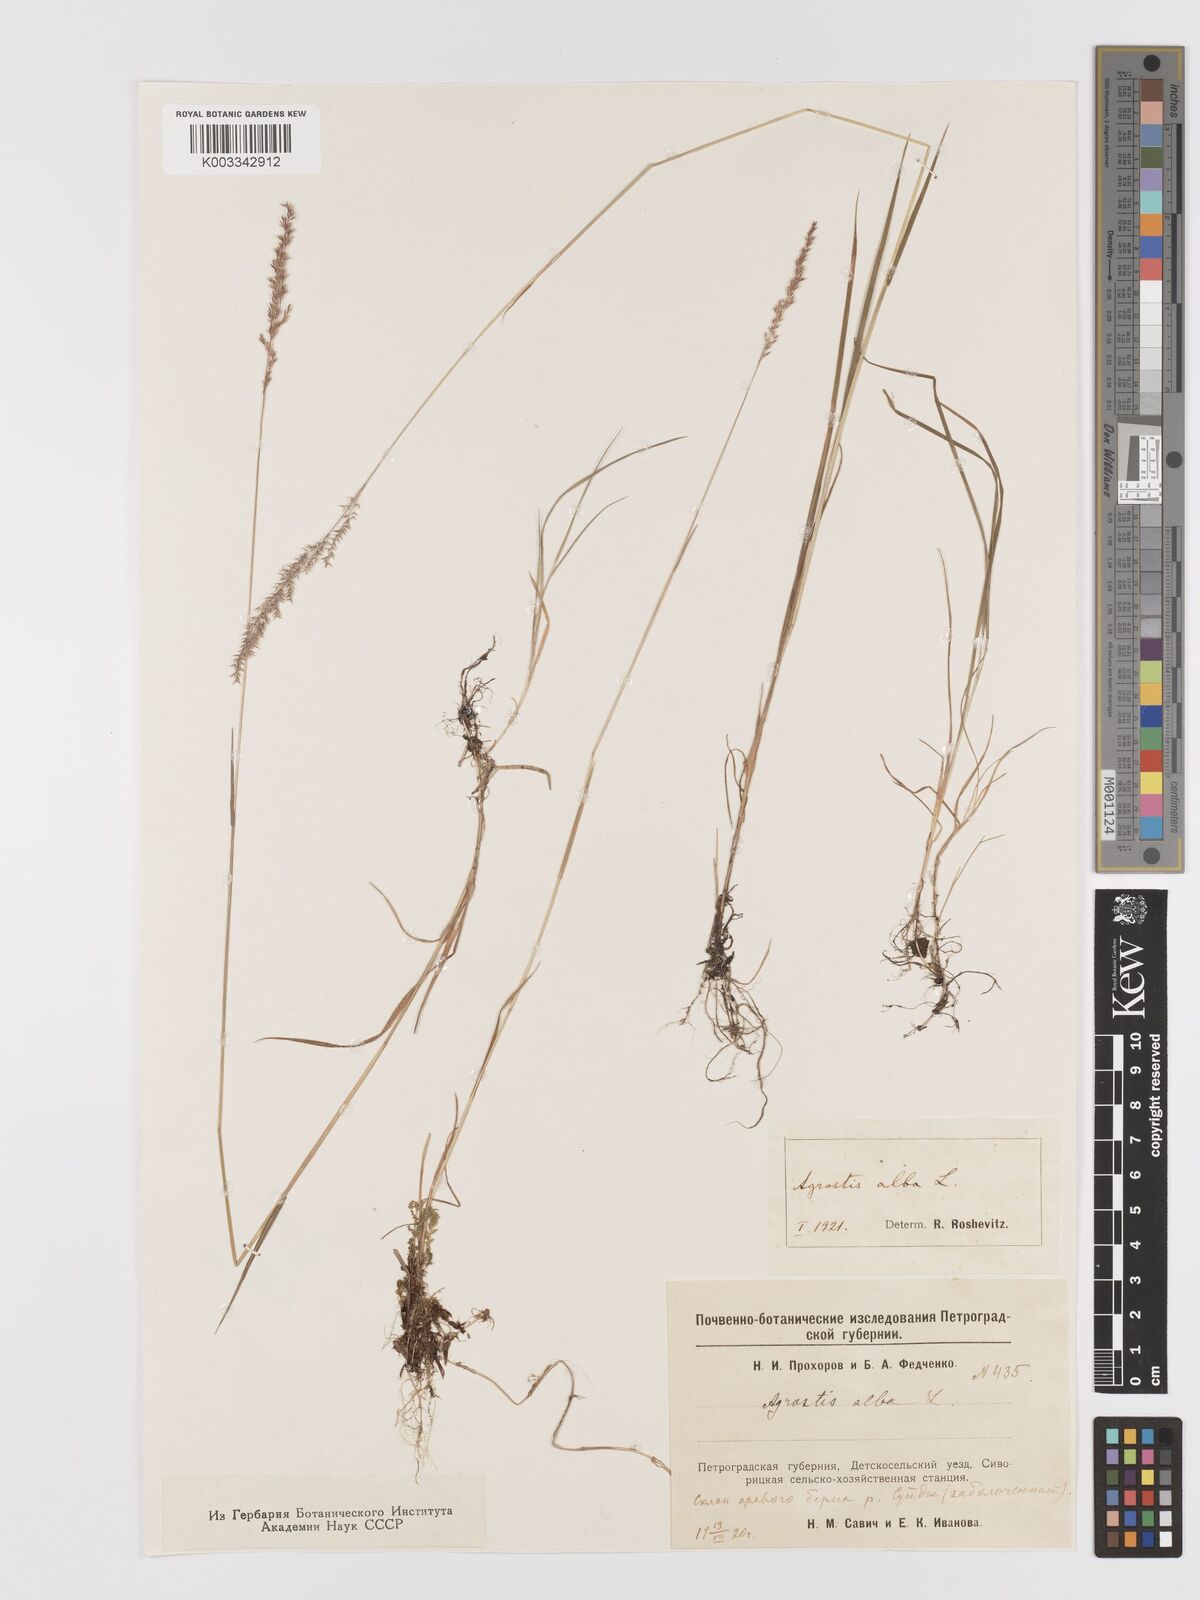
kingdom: Plantae
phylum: Tracheophyta
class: Liliopsida
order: Poales
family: Poaceae
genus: Agrostis
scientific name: Agrostis gigantea
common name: Black bent
